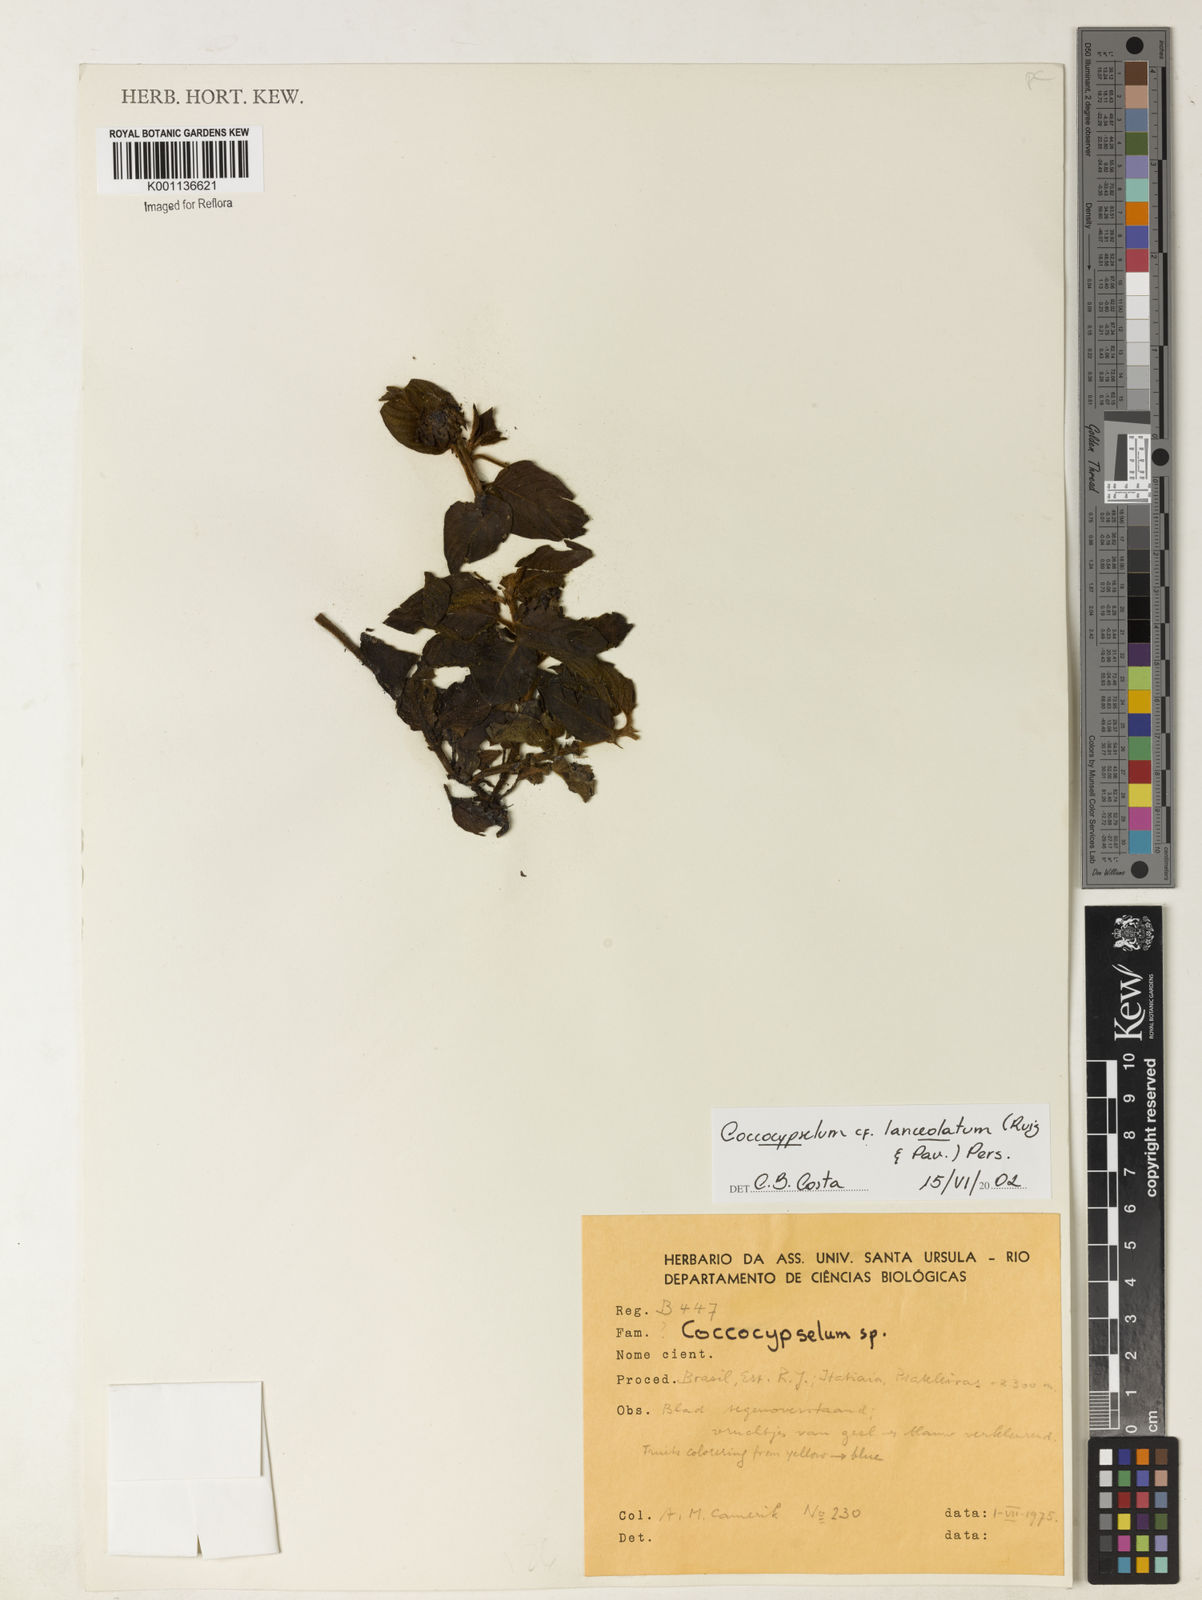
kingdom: Plantae
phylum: Tracheophyta
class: Magnoliopsida
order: Gentianales
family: Rubiaceae
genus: Coccocypselum
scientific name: Coccocypselum lanceolatum
